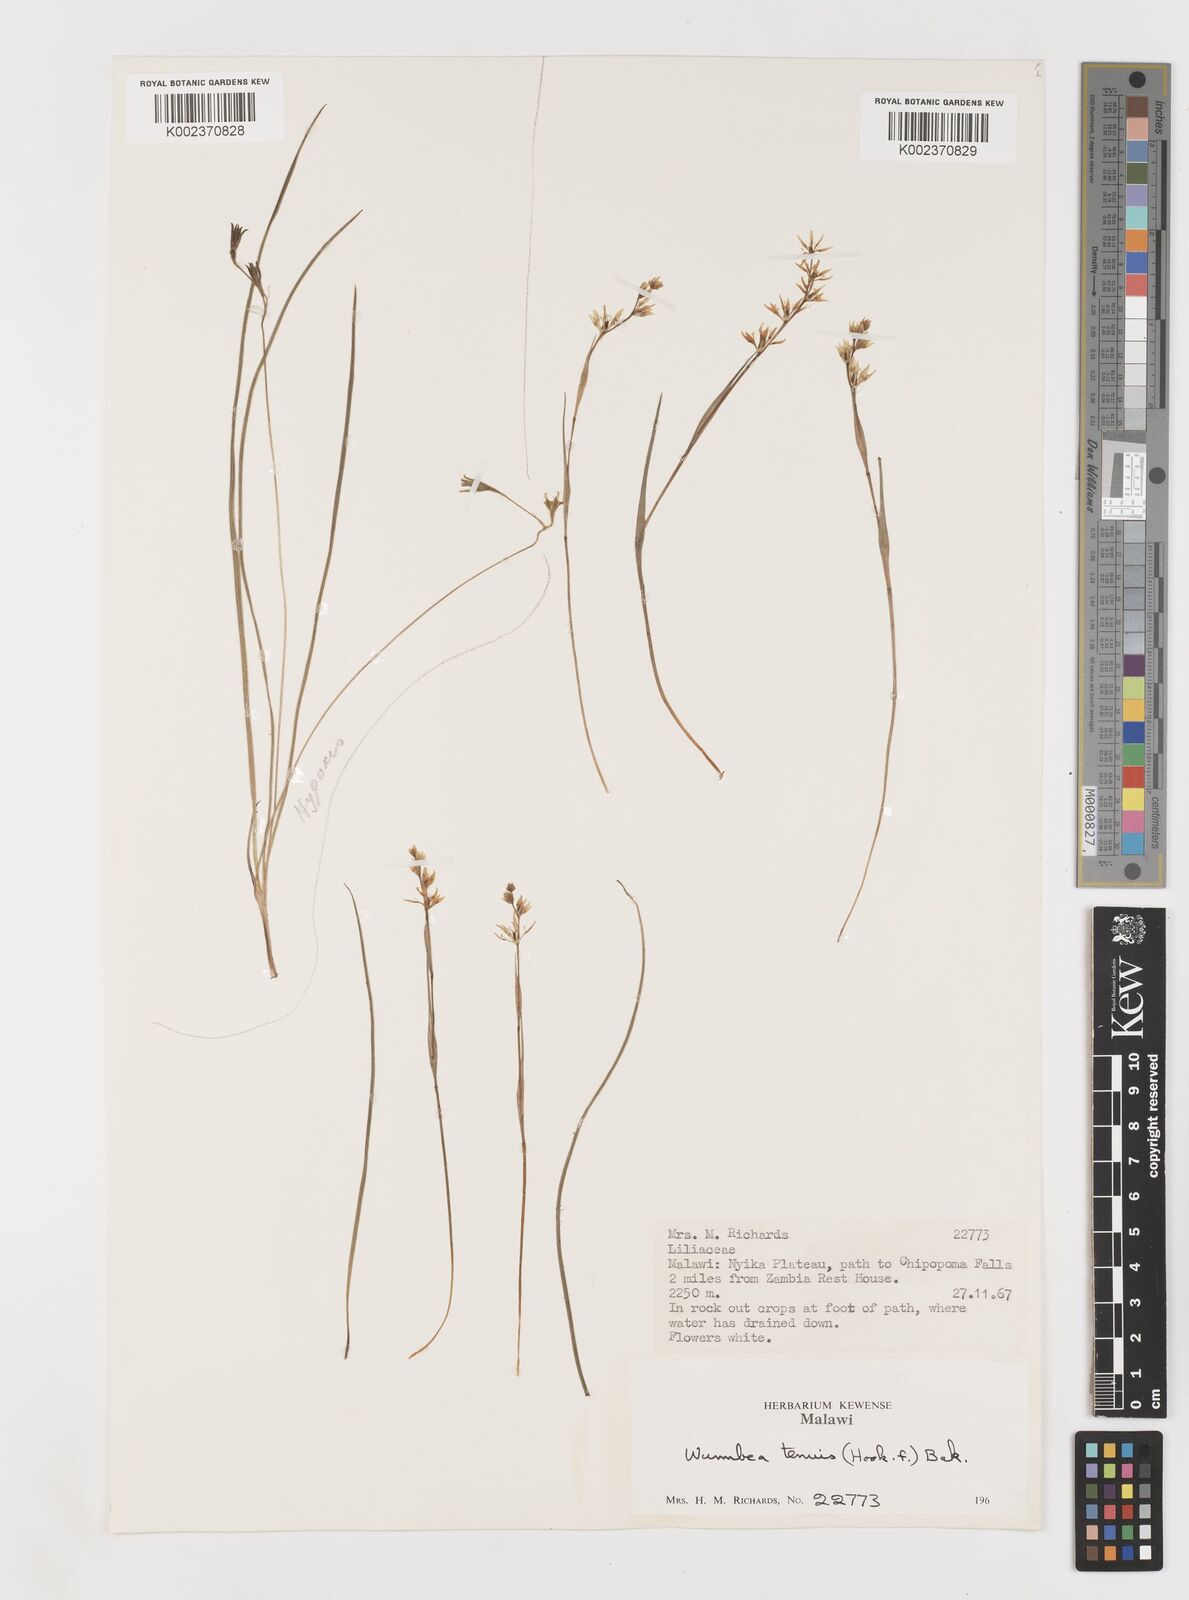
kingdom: Plantae
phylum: Tracheophyta
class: Liliopsida
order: Liliales
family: Colchicaceae
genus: Wurmbea
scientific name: Wurmbea tenuis
